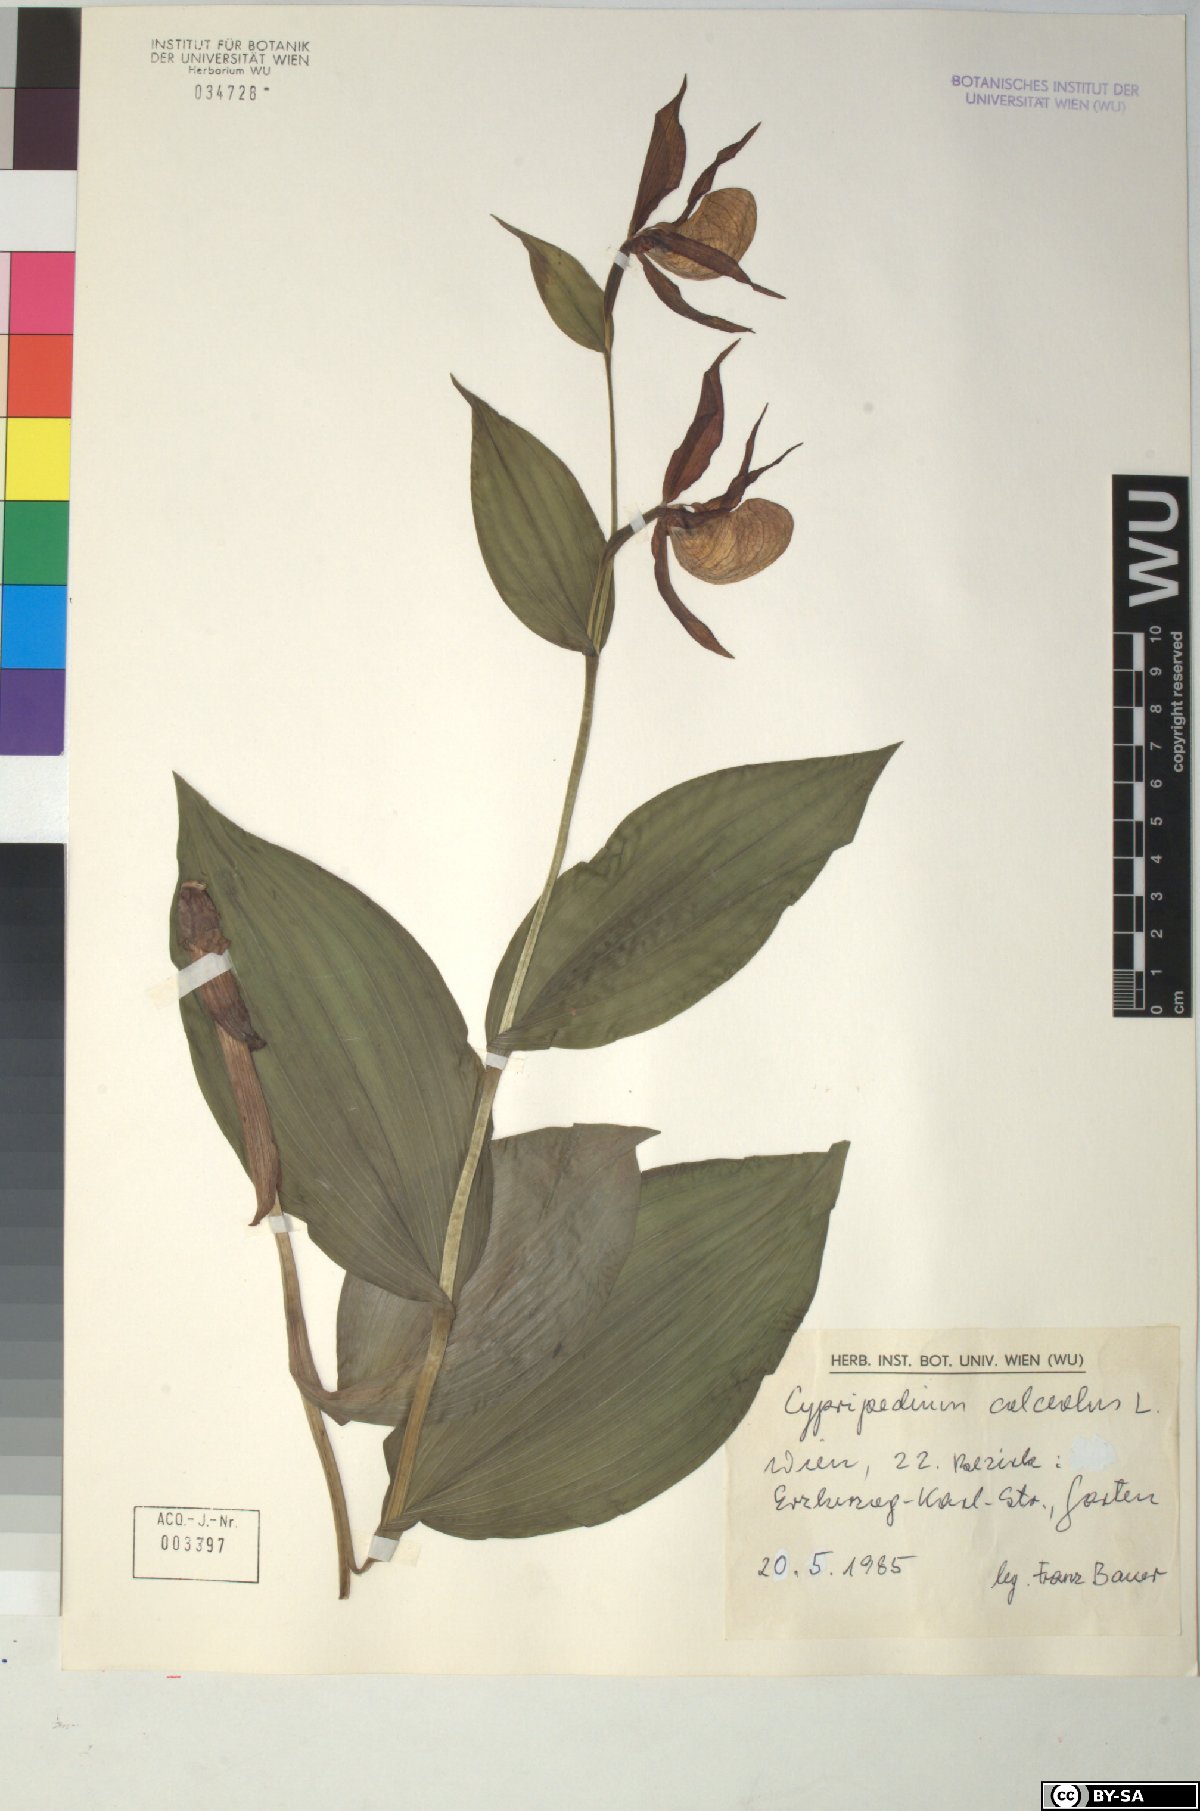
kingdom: Plantae
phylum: Tracheophyta
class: Liliopsida
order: Asparagales
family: Orchidaceae
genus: Cypripedium
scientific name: Cypripedium calceolus
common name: Lady's-slipper
